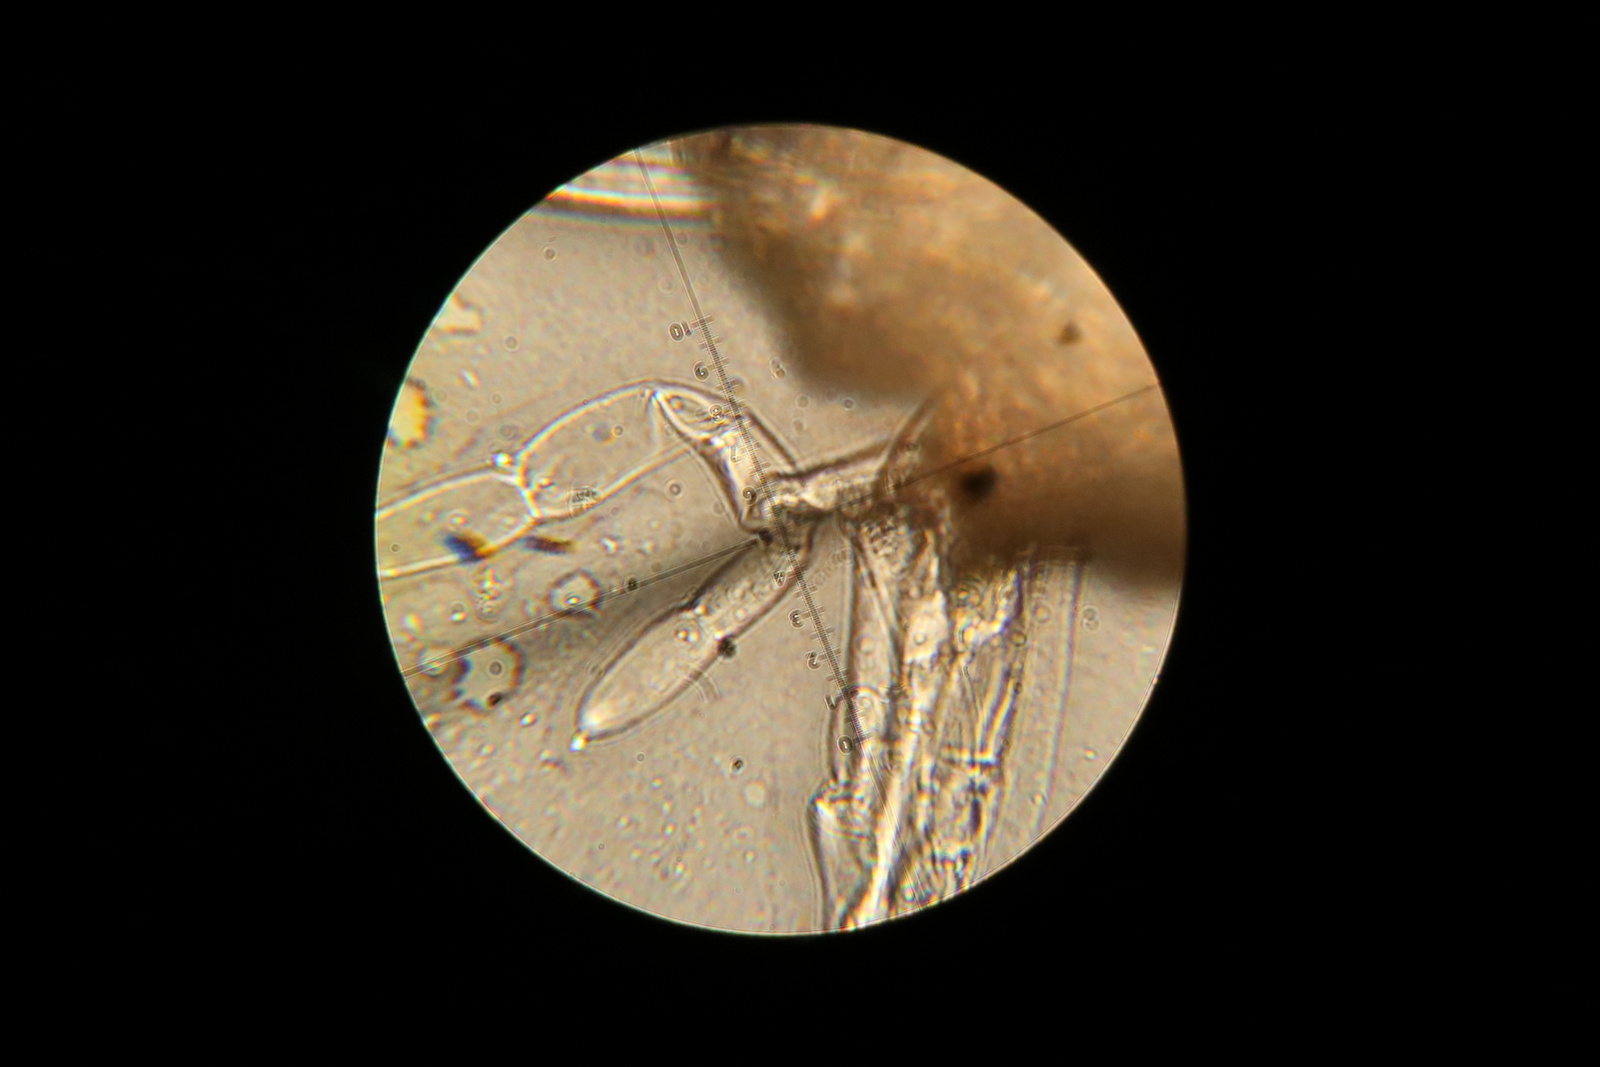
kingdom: Fungi
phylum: Ascomycota
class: Pezizomycetes
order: Pezizales
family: Pezizaceae
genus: Ostracoderma
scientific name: Ostracoderma ochraceum
